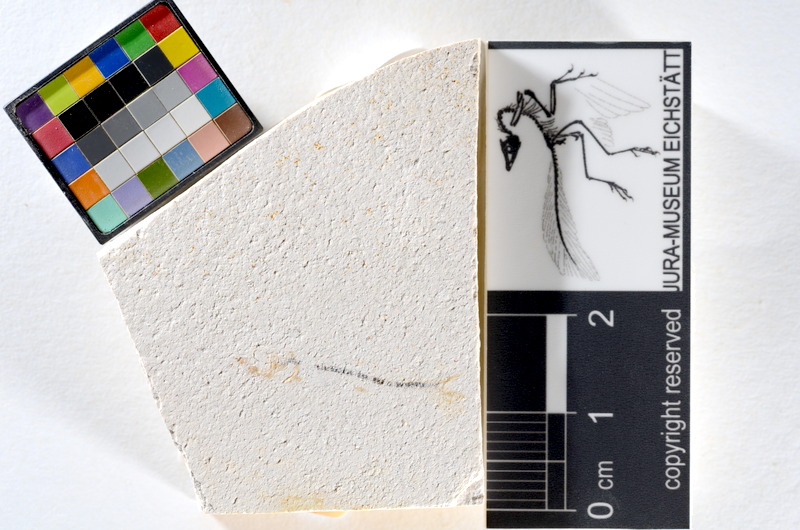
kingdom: Animalia
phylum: Chordata
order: Salmoniformes
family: Orthogonikleithridae
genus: Orthogonikleithrus
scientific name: Orthogonikleithrus hoelli
